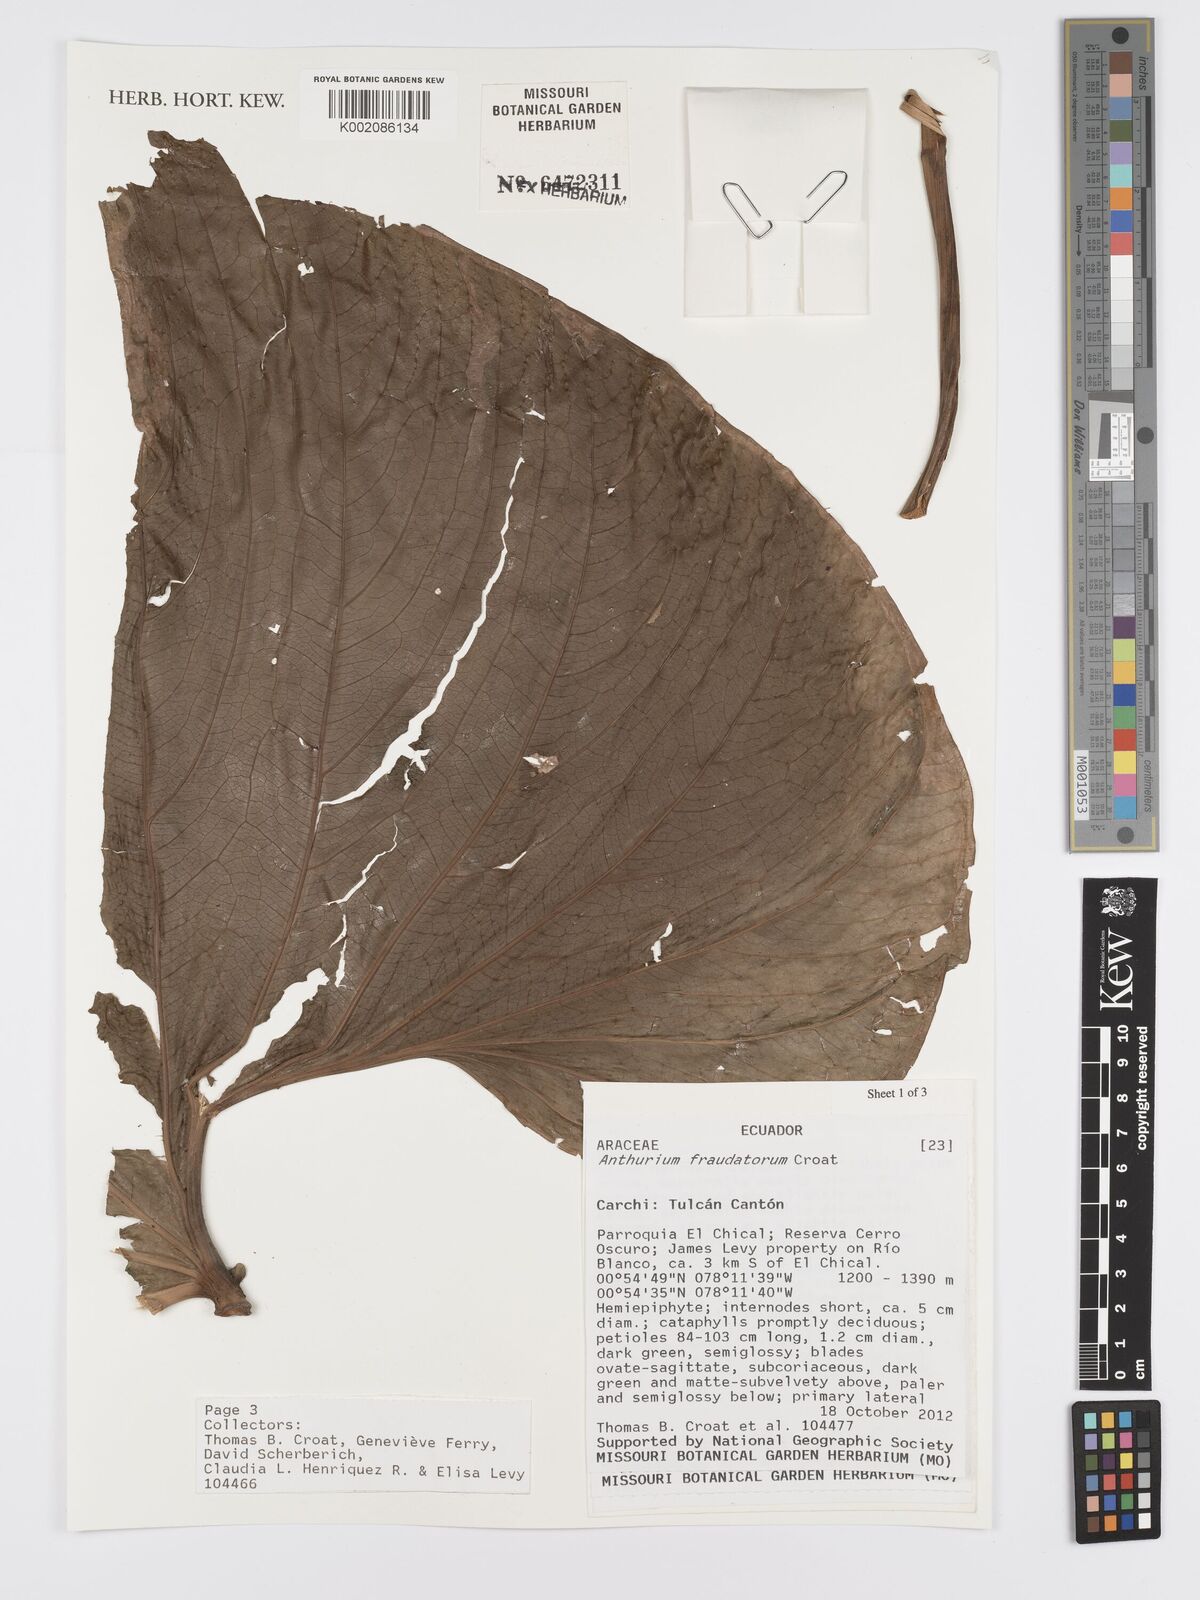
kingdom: Plantae
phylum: Tracheophyta
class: Liliopsida
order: Alismatales
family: Araceae
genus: Anthurium
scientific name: Anthurium
